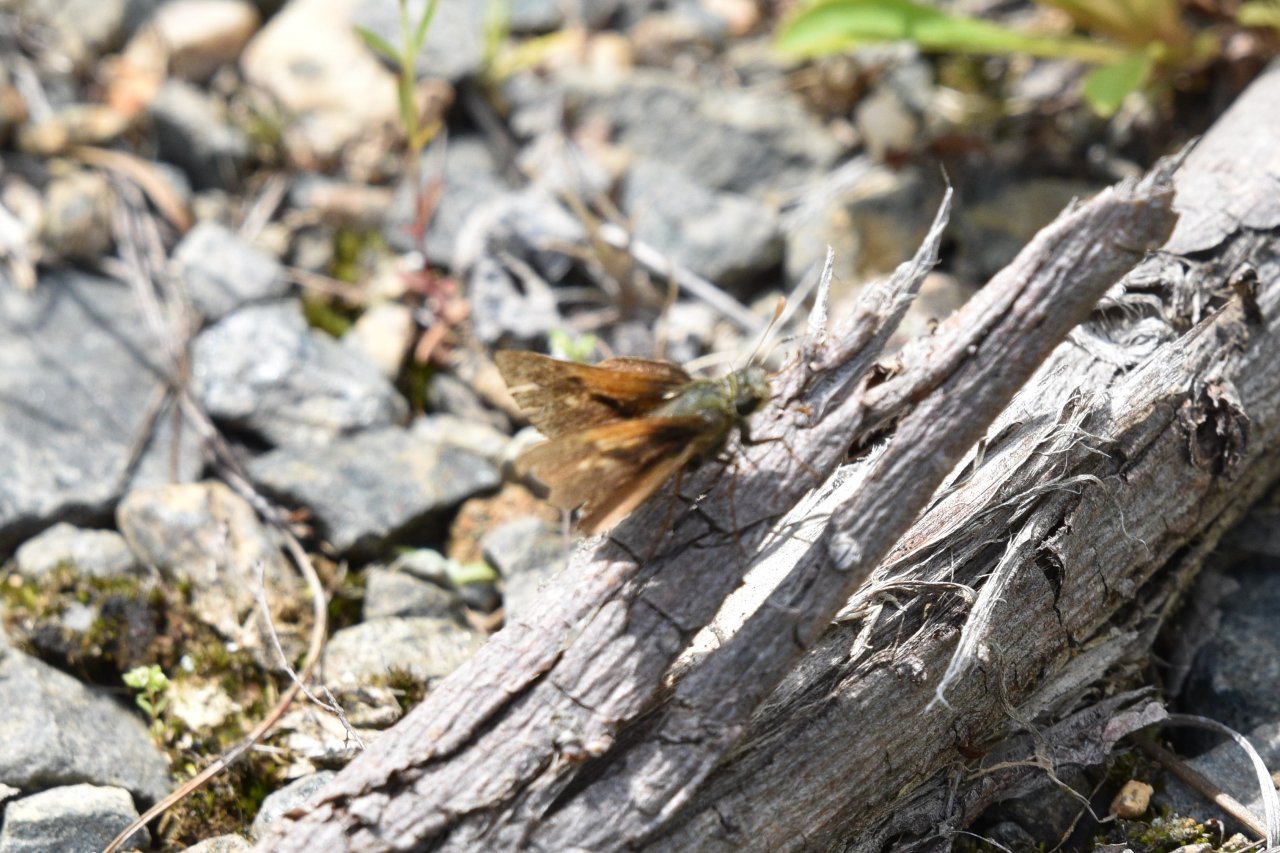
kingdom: Animalia
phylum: Arthropoda
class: Insecta
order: Lepidoptera
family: Hesperiidae
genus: Polites
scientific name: Polites themistocles
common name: Tawny-edged Skipper
